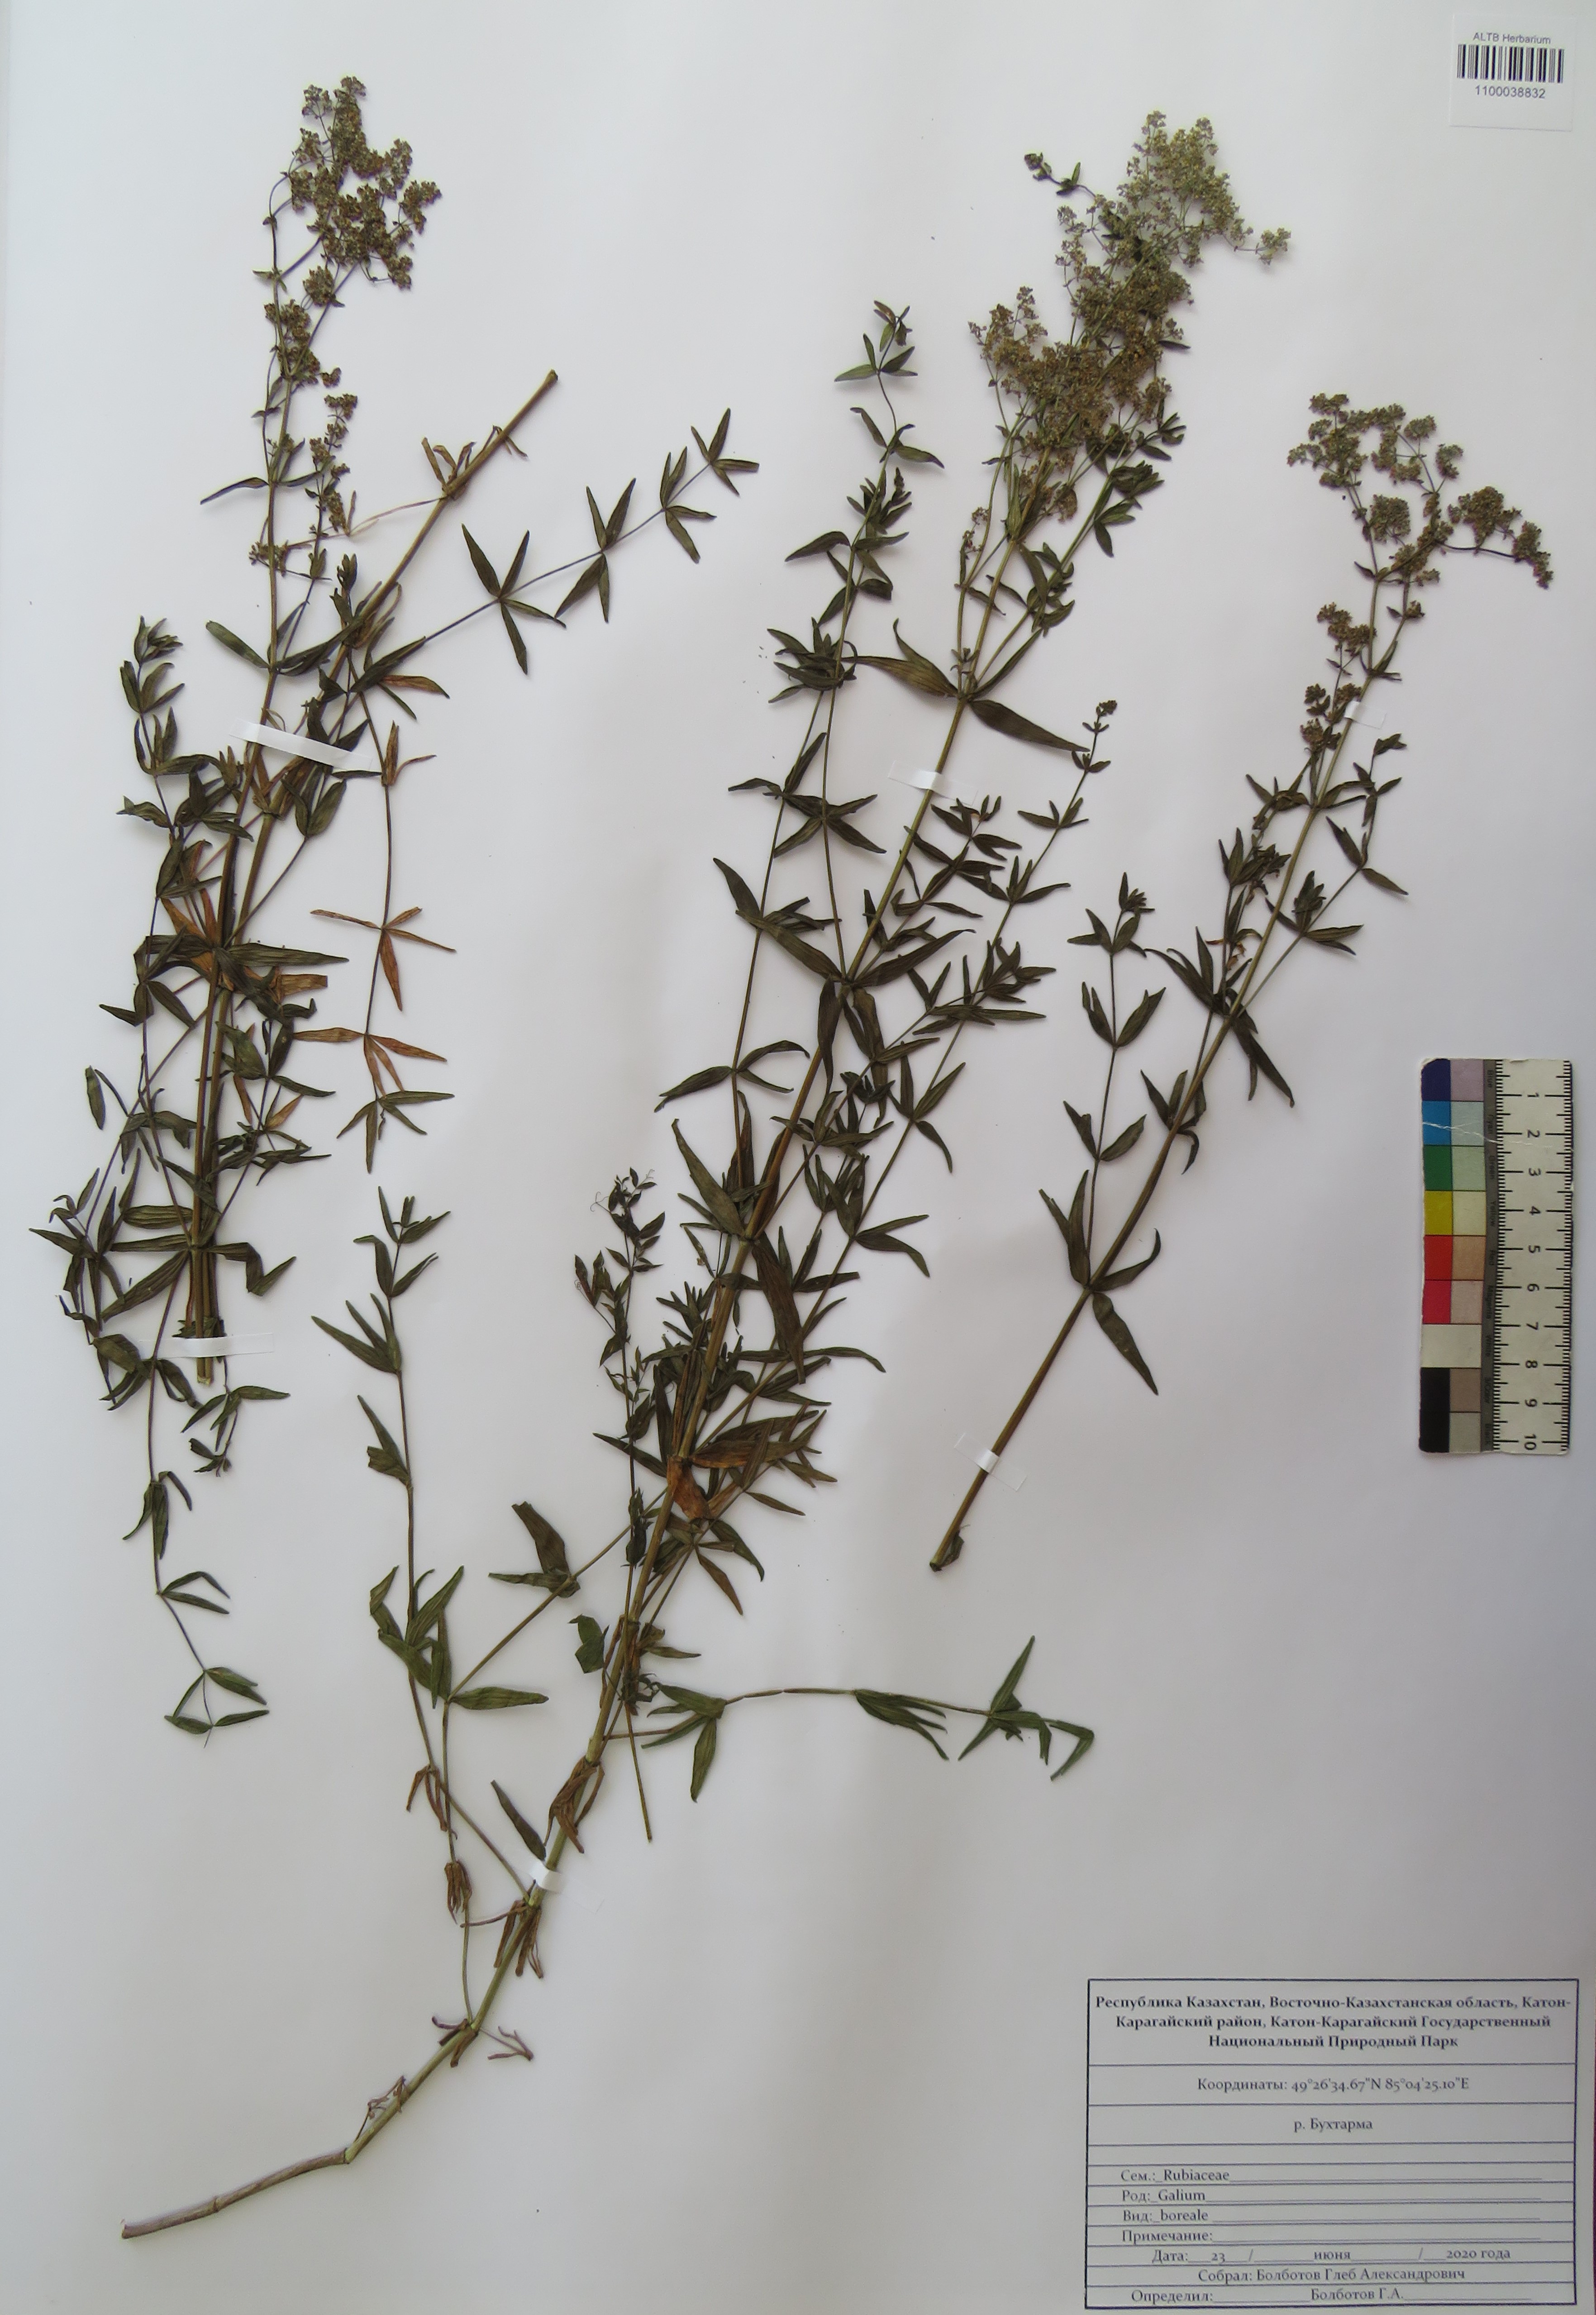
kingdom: Plantae
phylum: Tracheophyta
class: Magnoliopsida
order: Gentianales
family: Rubiaceae
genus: Galium
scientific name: Galium boreale
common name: Northern bedstraw
